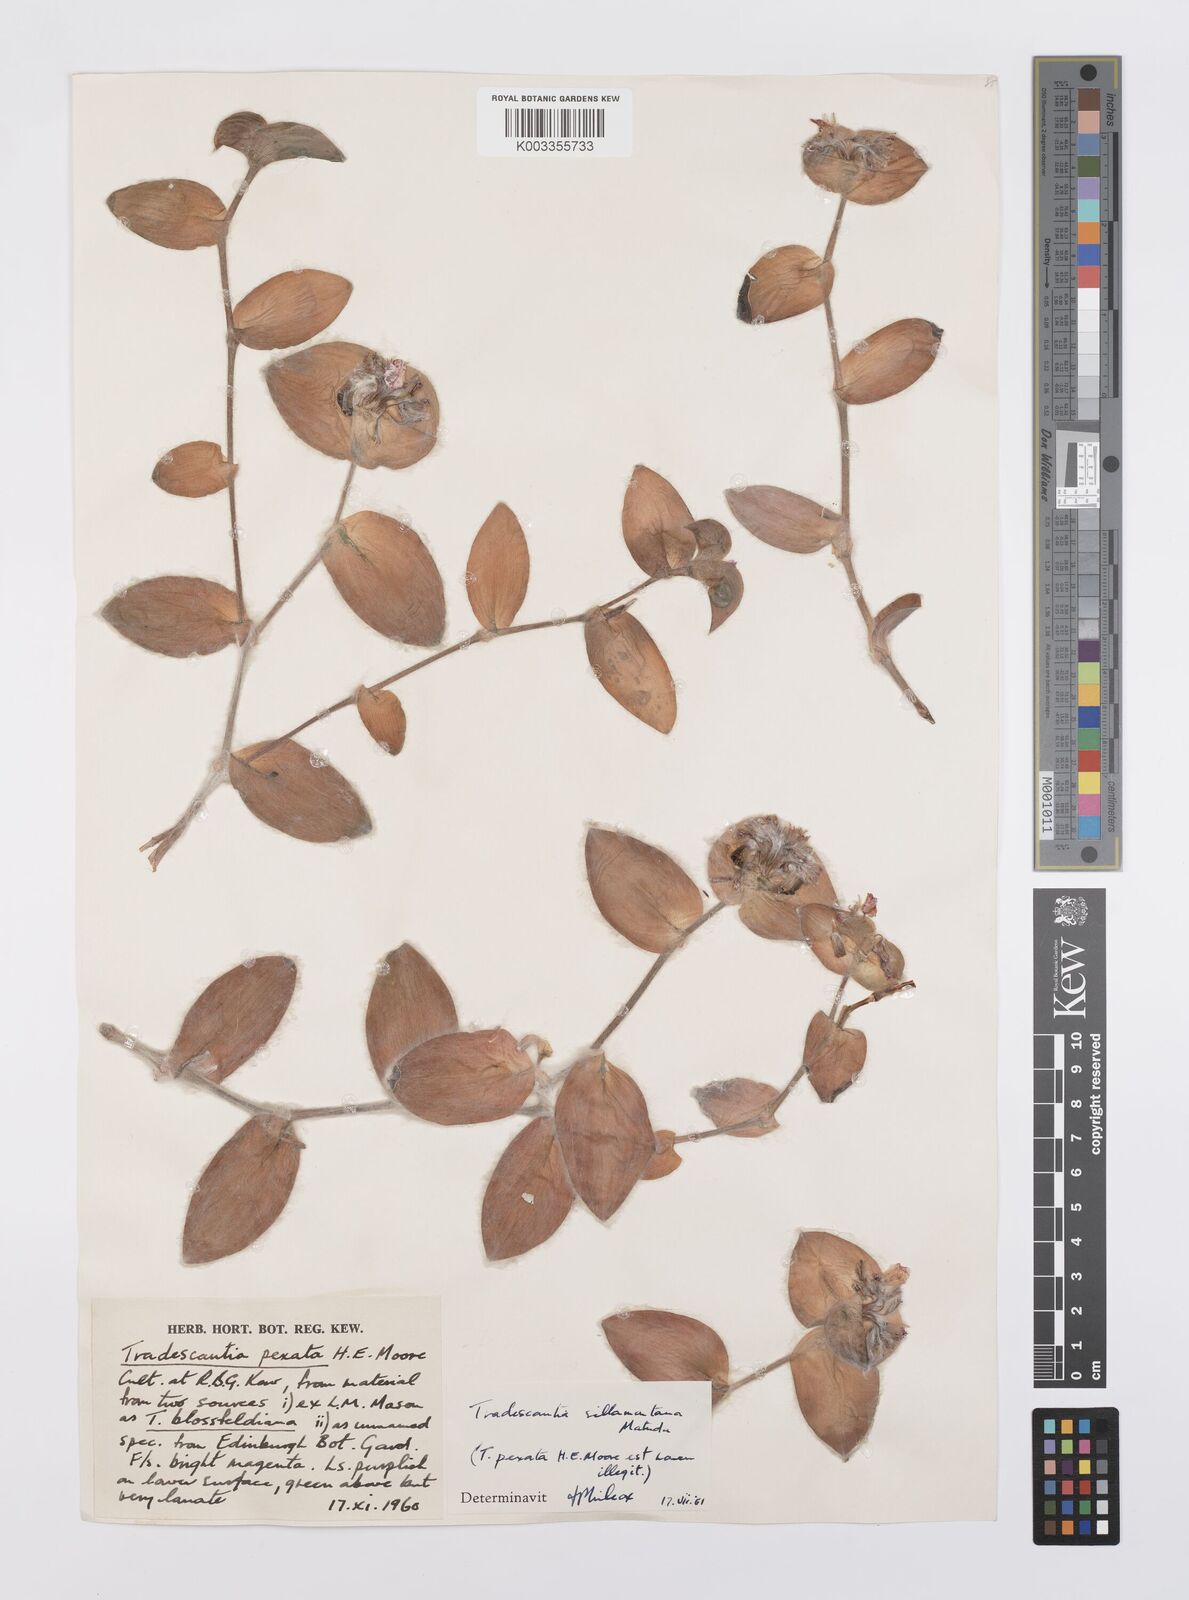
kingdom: Plantae
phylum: Tracheophyta
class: Liliopsida
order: Commelinales
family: Commelinaceae
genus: Tradescantia
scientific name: Tradescantia sillamontana
